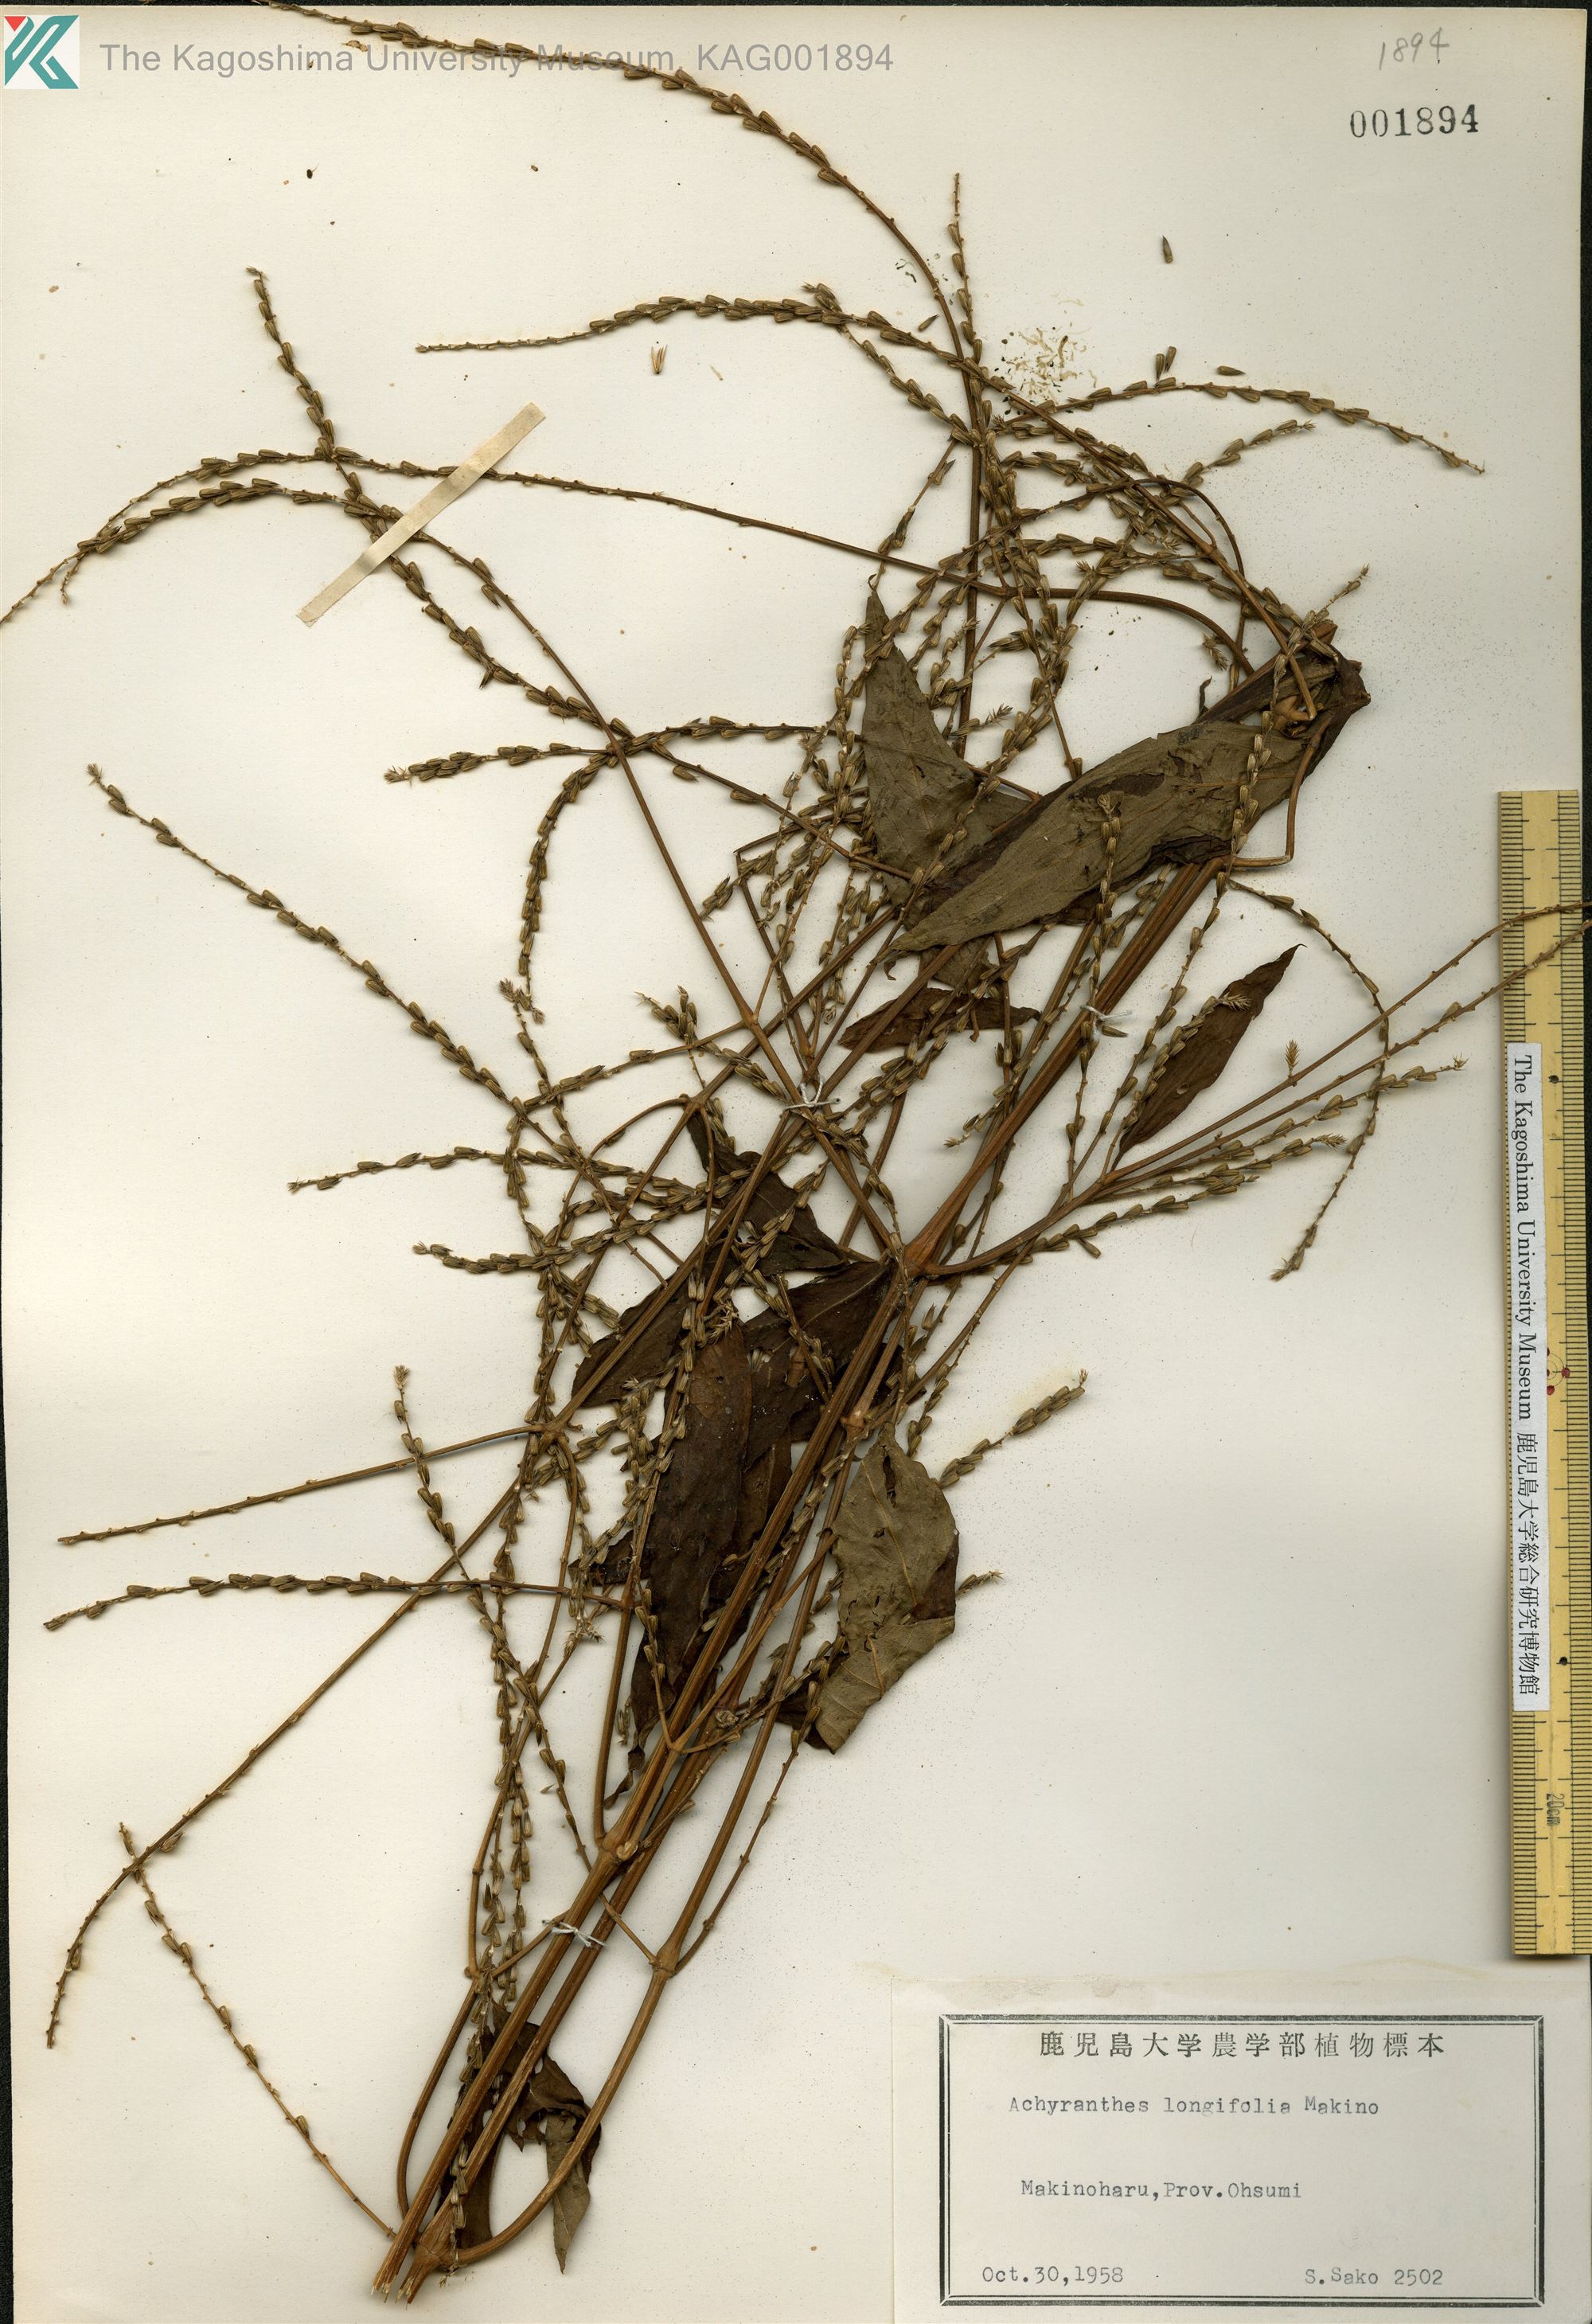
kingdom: Plantae
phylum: Tracheophyta
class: Magnoliopsida
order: Caryophyllales
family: Amaranthaceae
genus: Achyranthes
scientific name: Achyranthes bidentata
